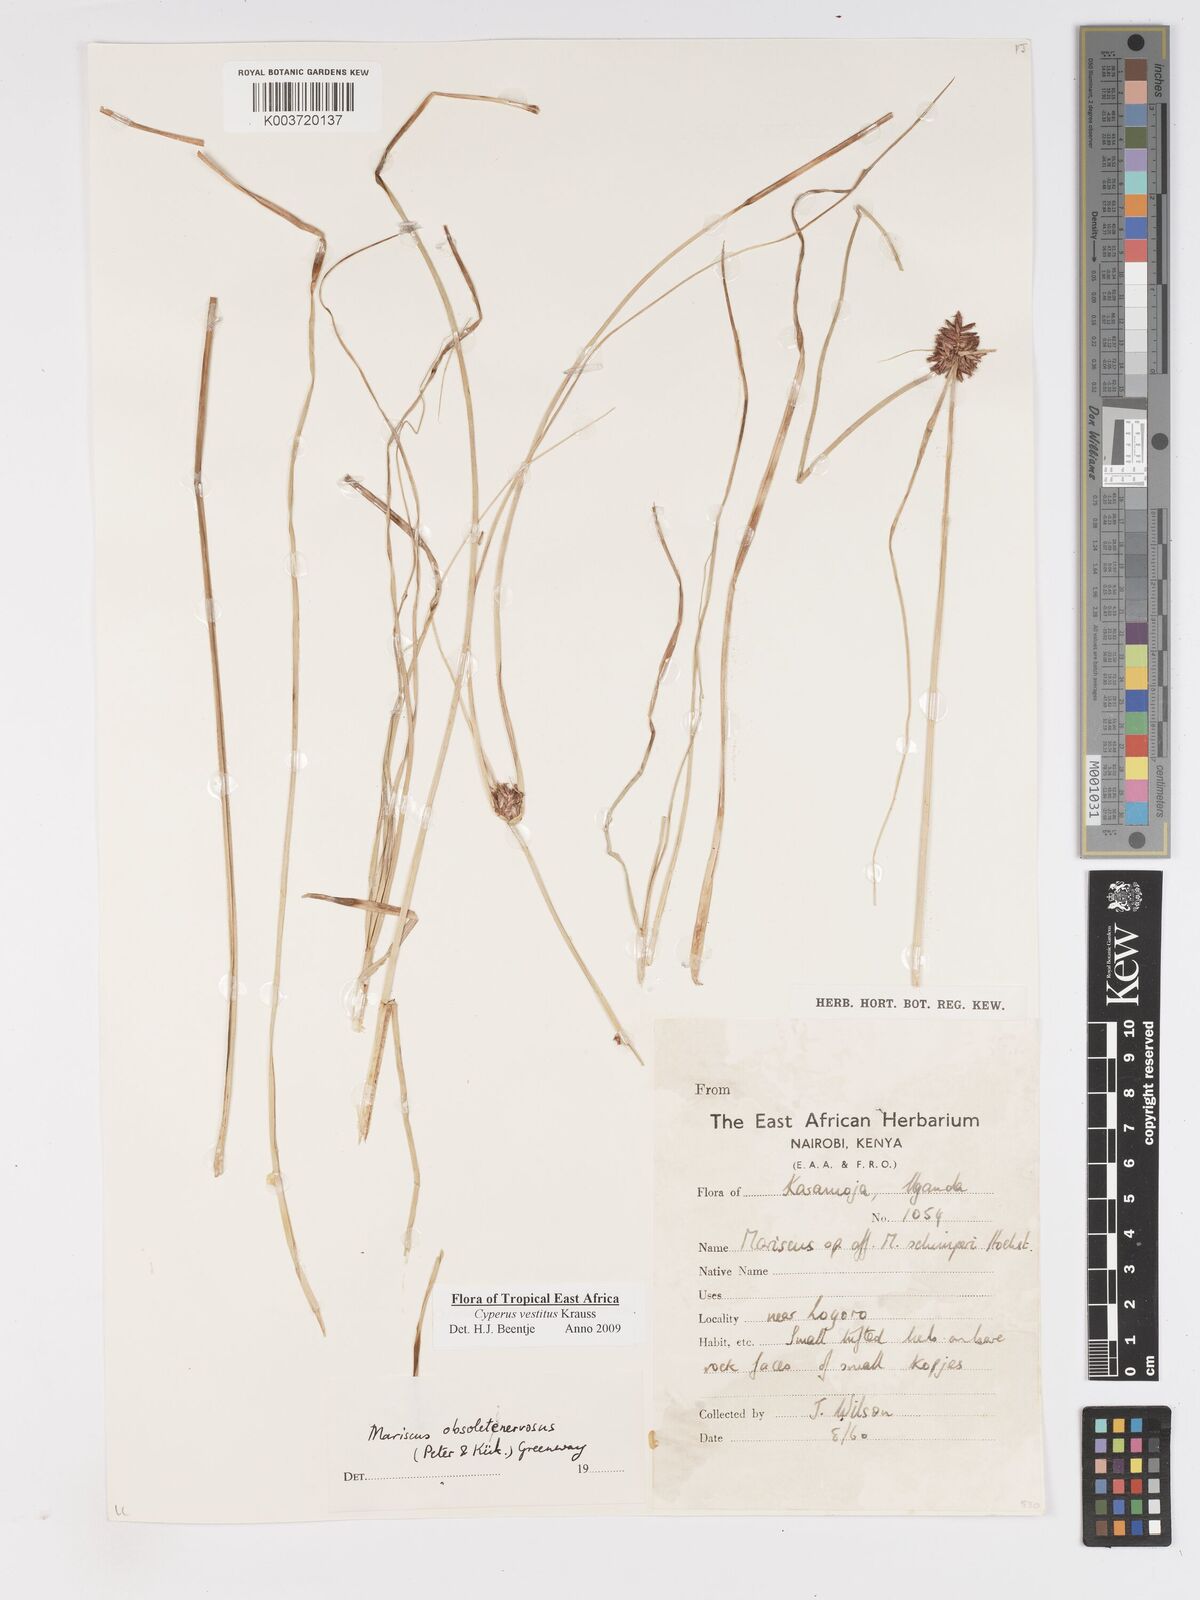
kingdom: Plantae
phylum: Tracheophyta
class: Liliopsida
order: Poales
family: Cyperaceae
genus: Cyperus
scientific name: Cyperus vestitus
